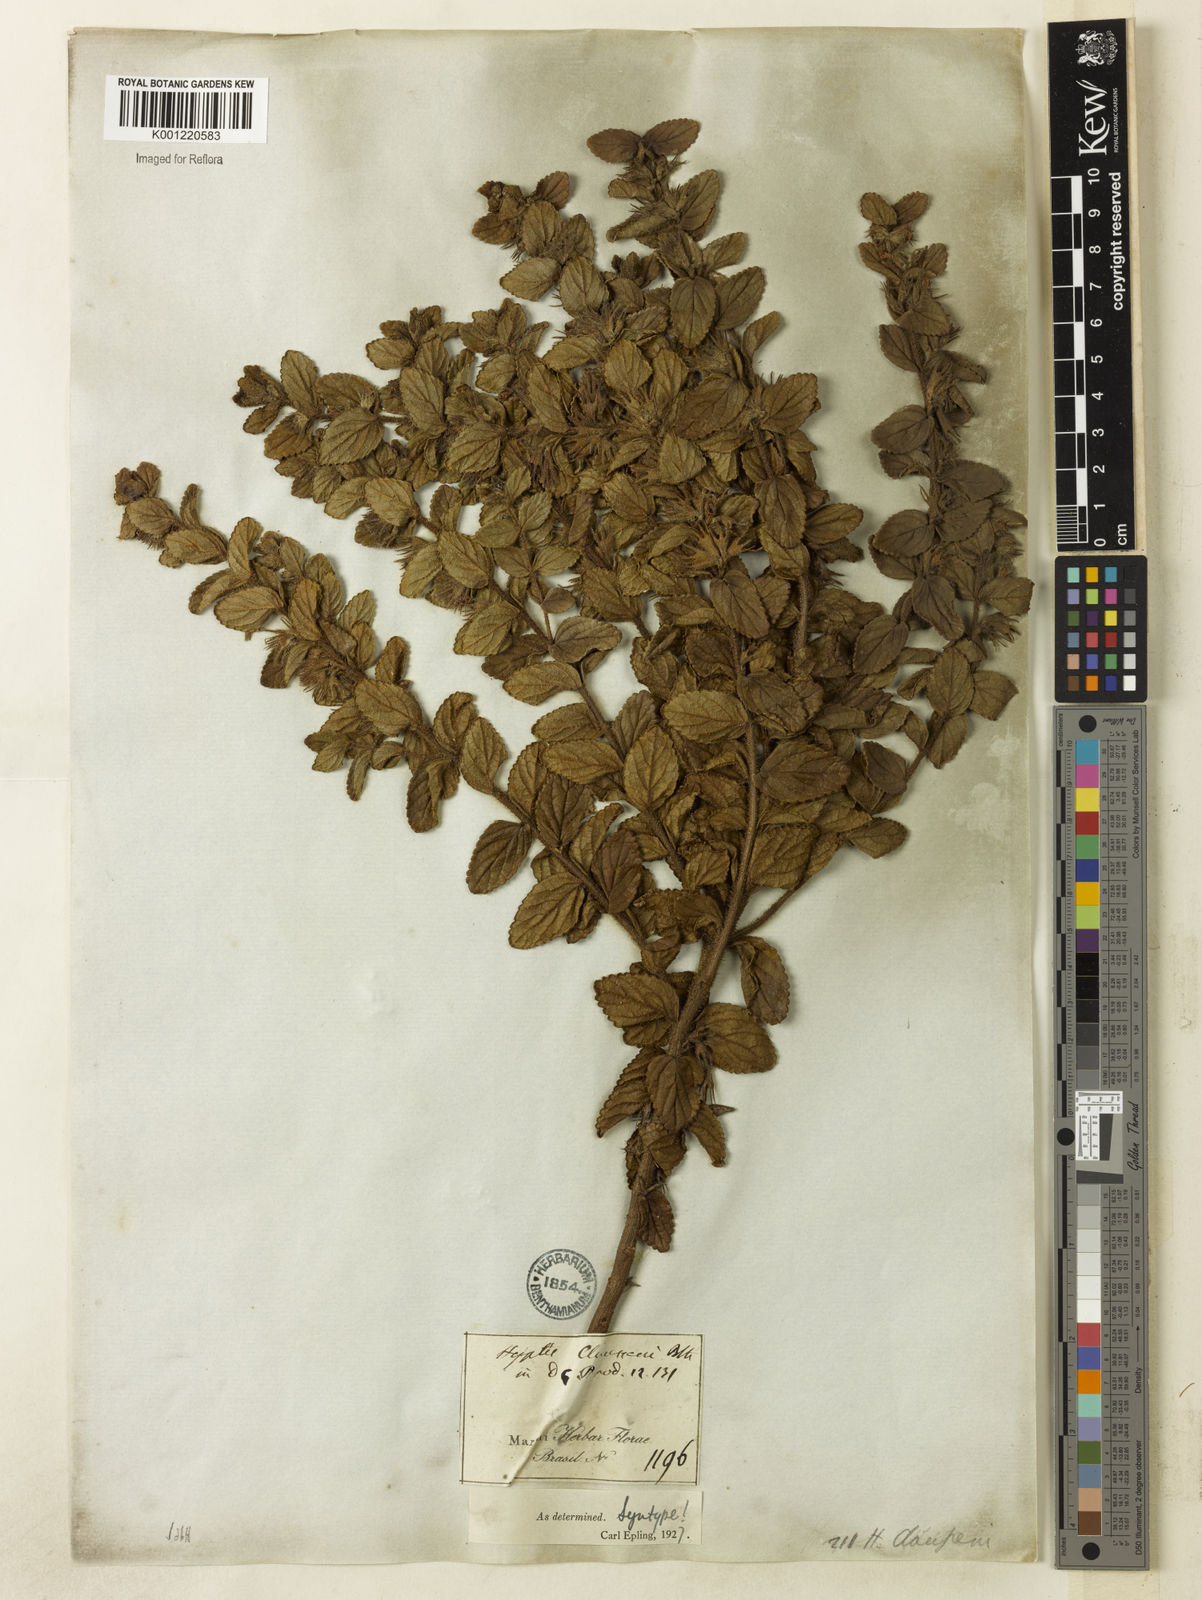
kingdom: Plantae
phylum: Tracheophyta
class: Magnoliopsida
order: Lamiales
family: Lamiaceae
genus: Hyptidendron
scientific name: Hyptidendron claussenii
